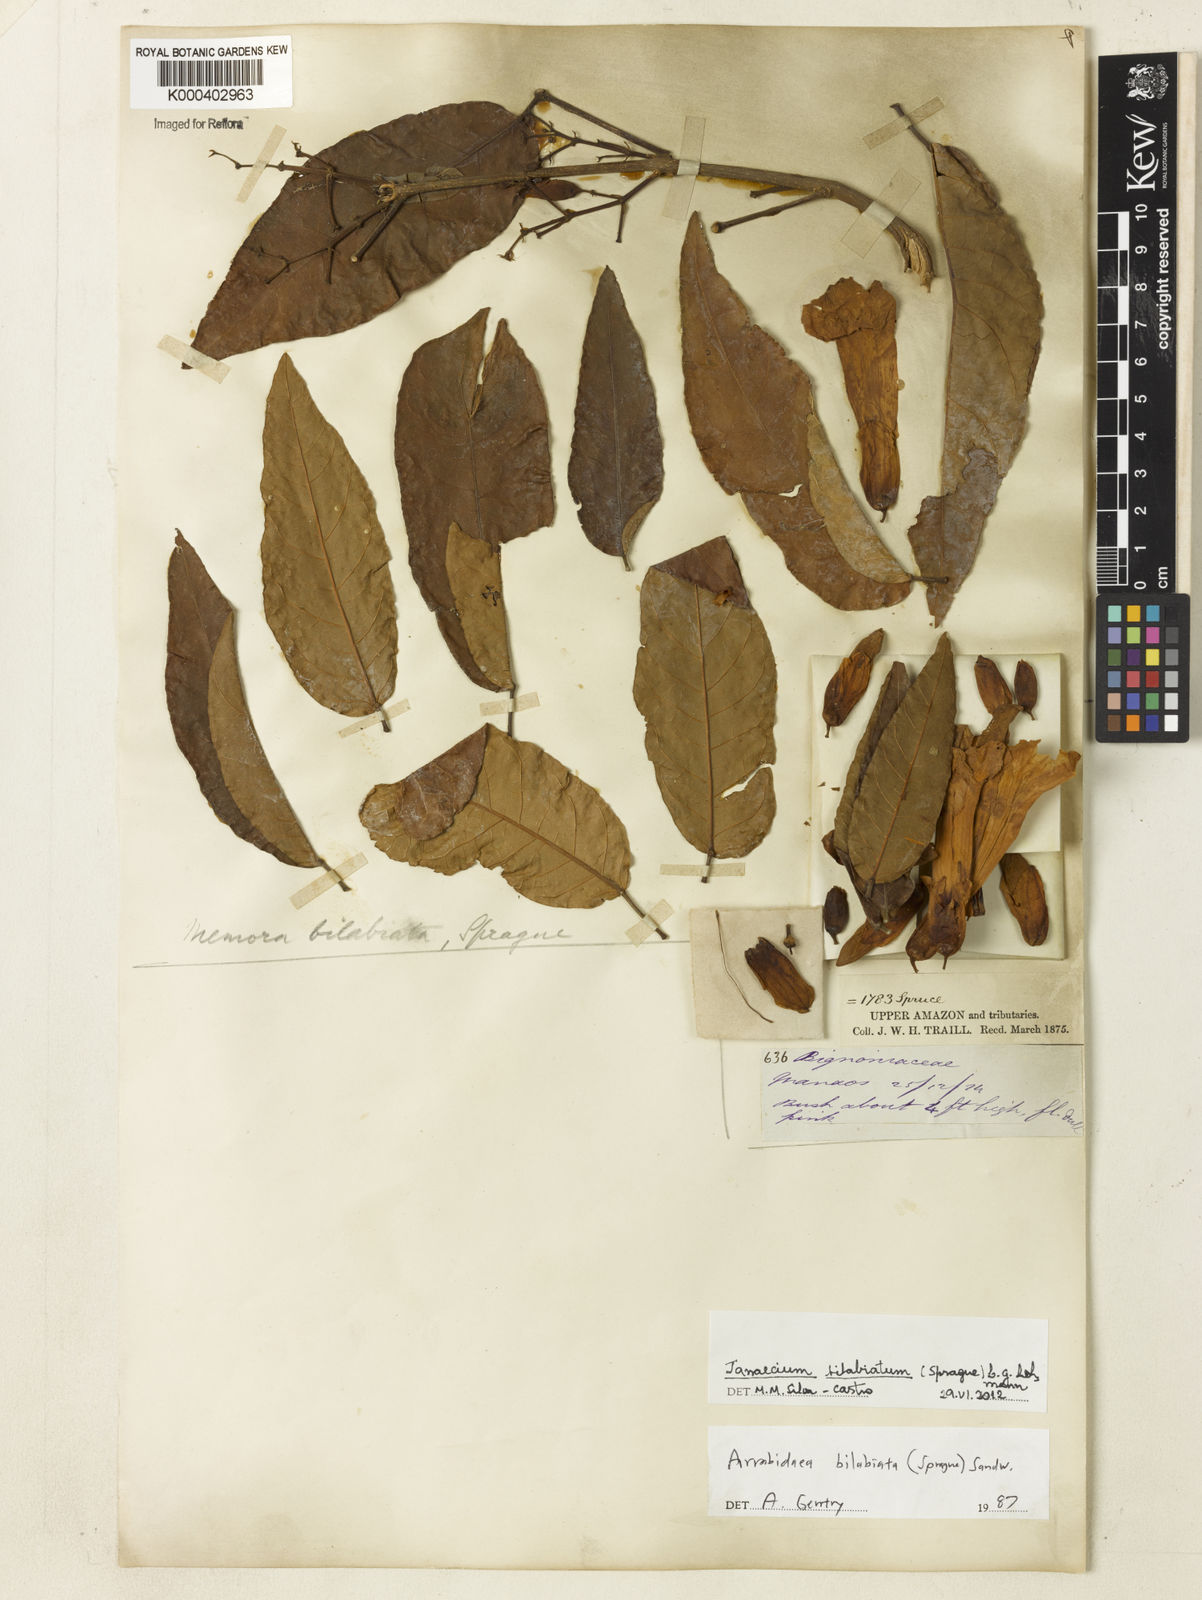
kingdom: Plantae
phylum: Tracheophyta
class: Magnoliopsida
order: Lamiales
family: Bignoniaceae
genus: Tanaecium
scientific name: Tanaecium bilabiatum
